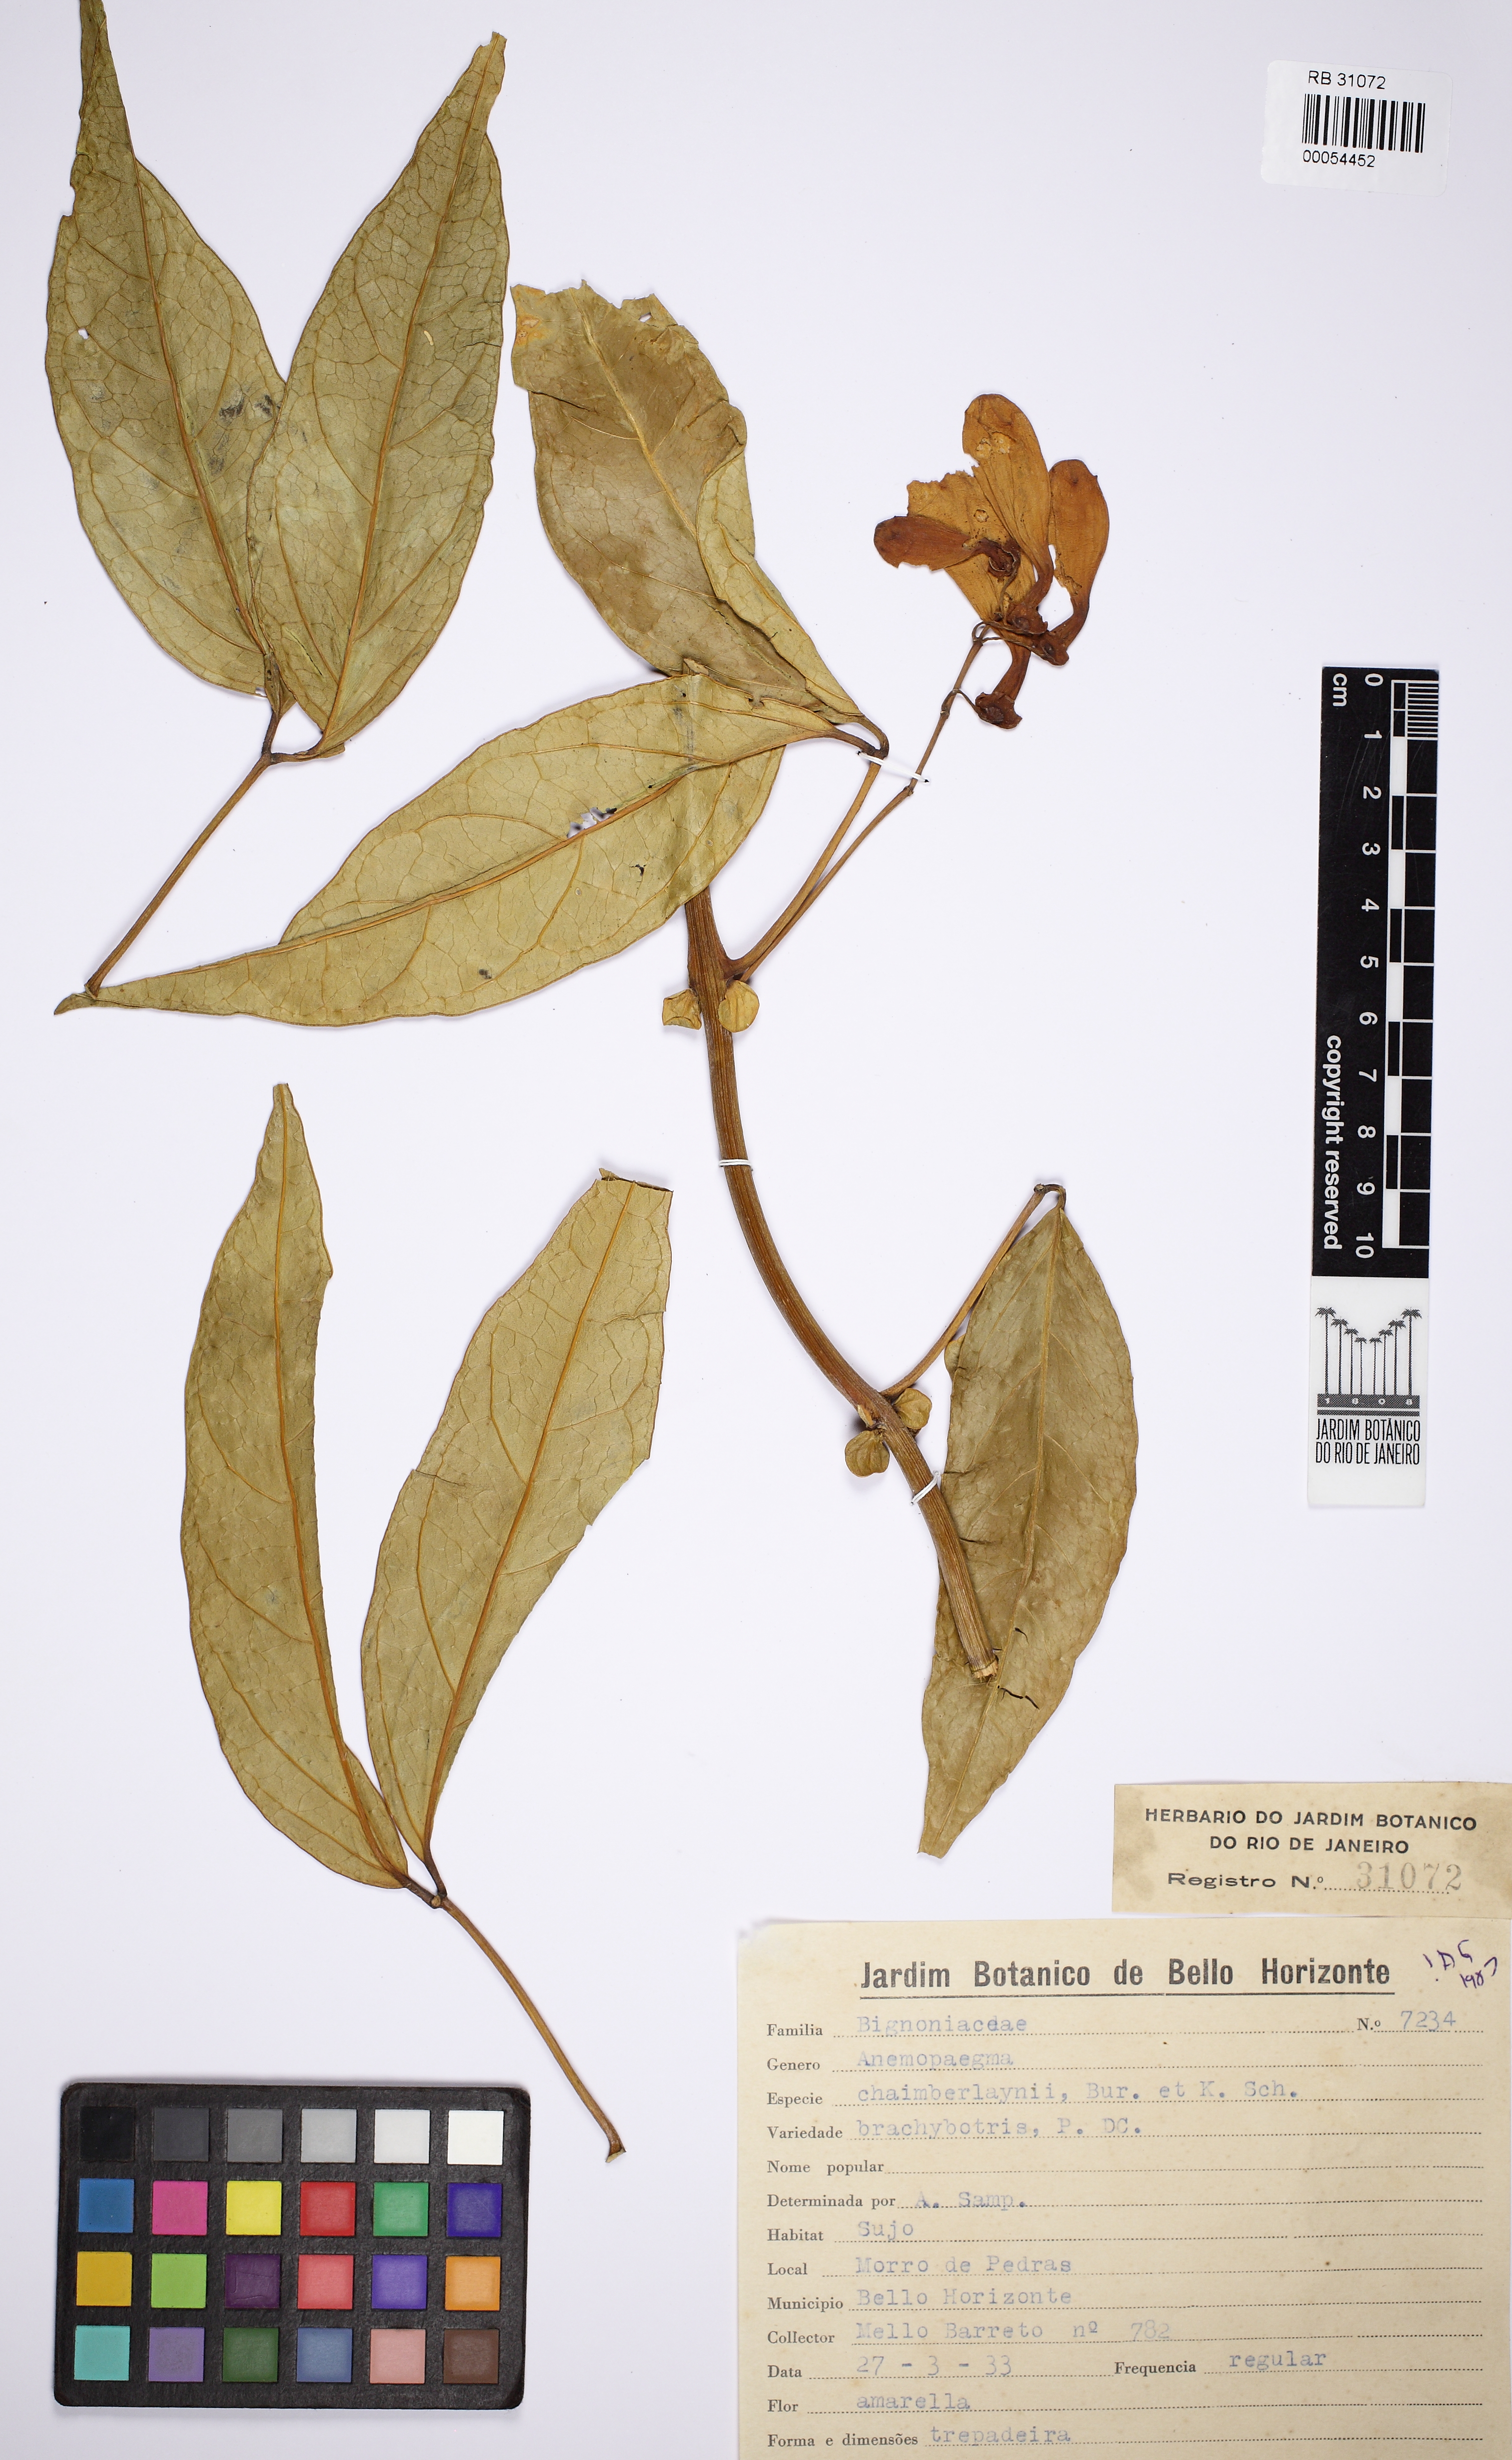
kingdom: Plantae
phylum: Tracheophyta
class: Magnoliopsida
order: Lamiales
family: Bignoniaceae
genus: Anemopaegma
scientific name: Anemopaegma chamberlaynii
